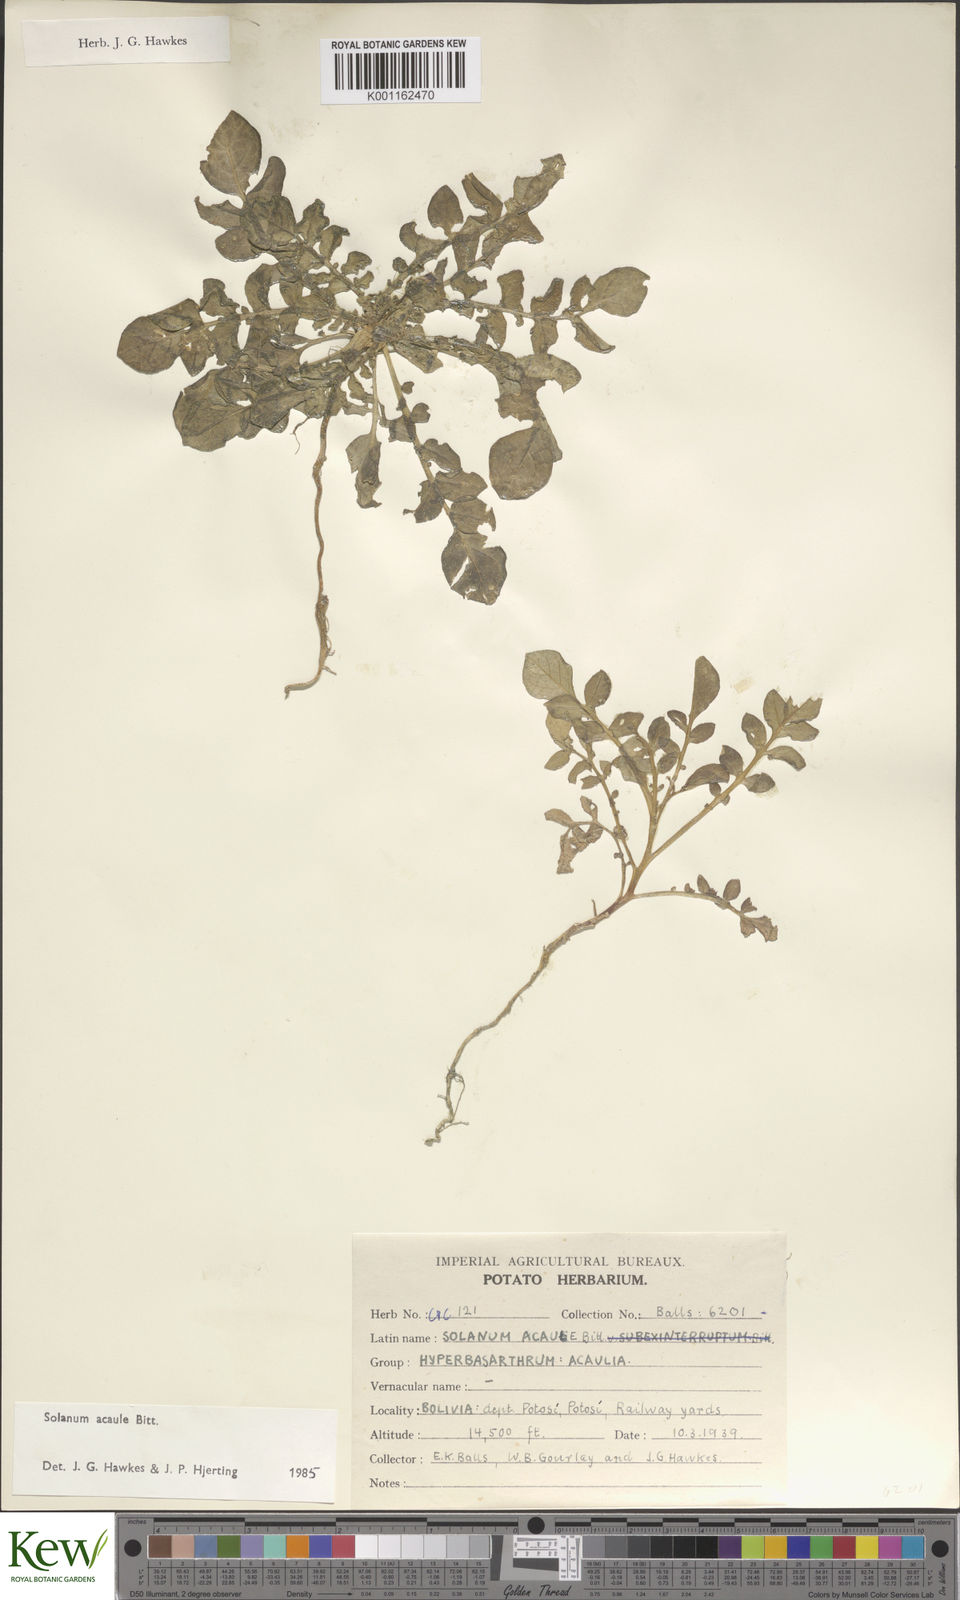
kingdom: Plantae
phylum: Tracheophyta
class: Magnoliopsida
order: Solanales
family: Solanaceae
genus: Solanum
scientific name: Solanum acaule
